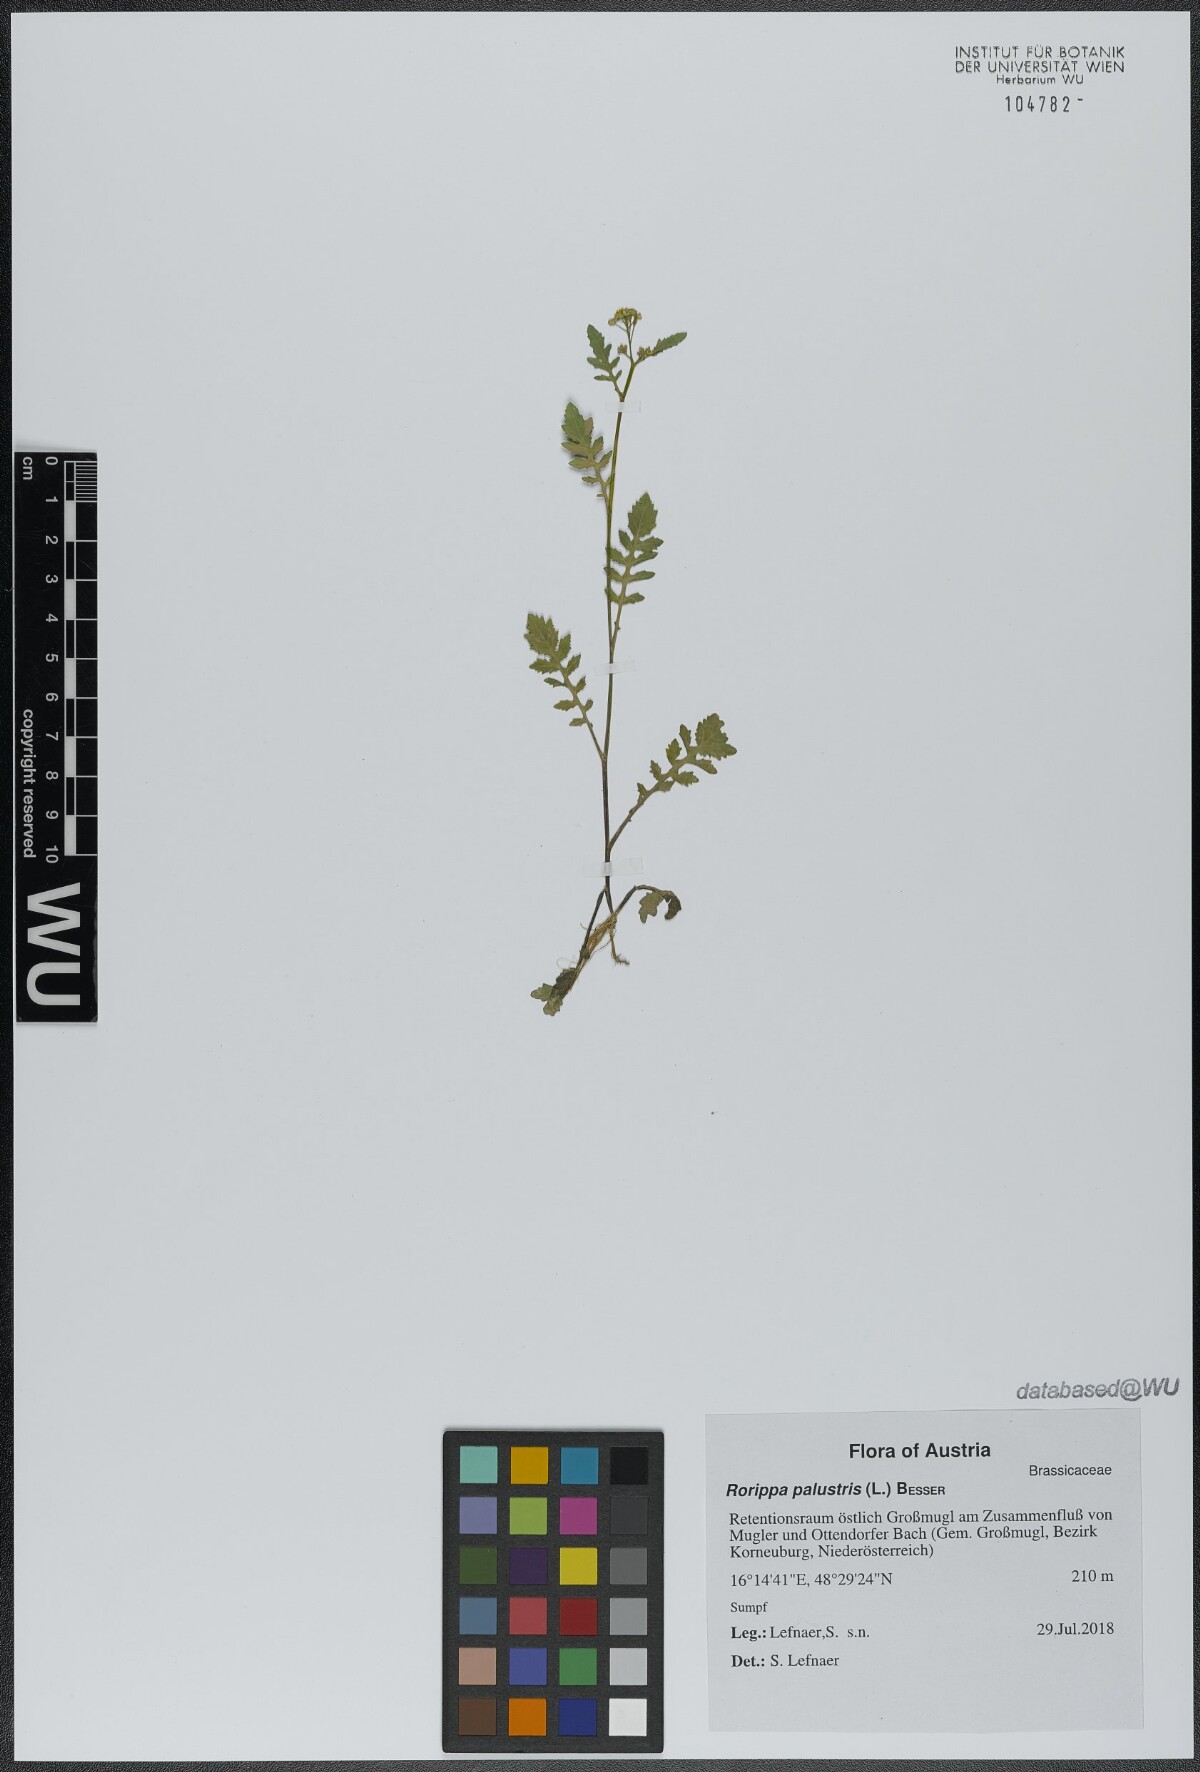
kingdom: Plantae
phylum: Tracheophyta
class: Magnoliopsida
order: Brassicales
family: Brassicaceae
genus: Rorippa
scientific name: Rorippa palustris
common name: Marsh yellow-cress
